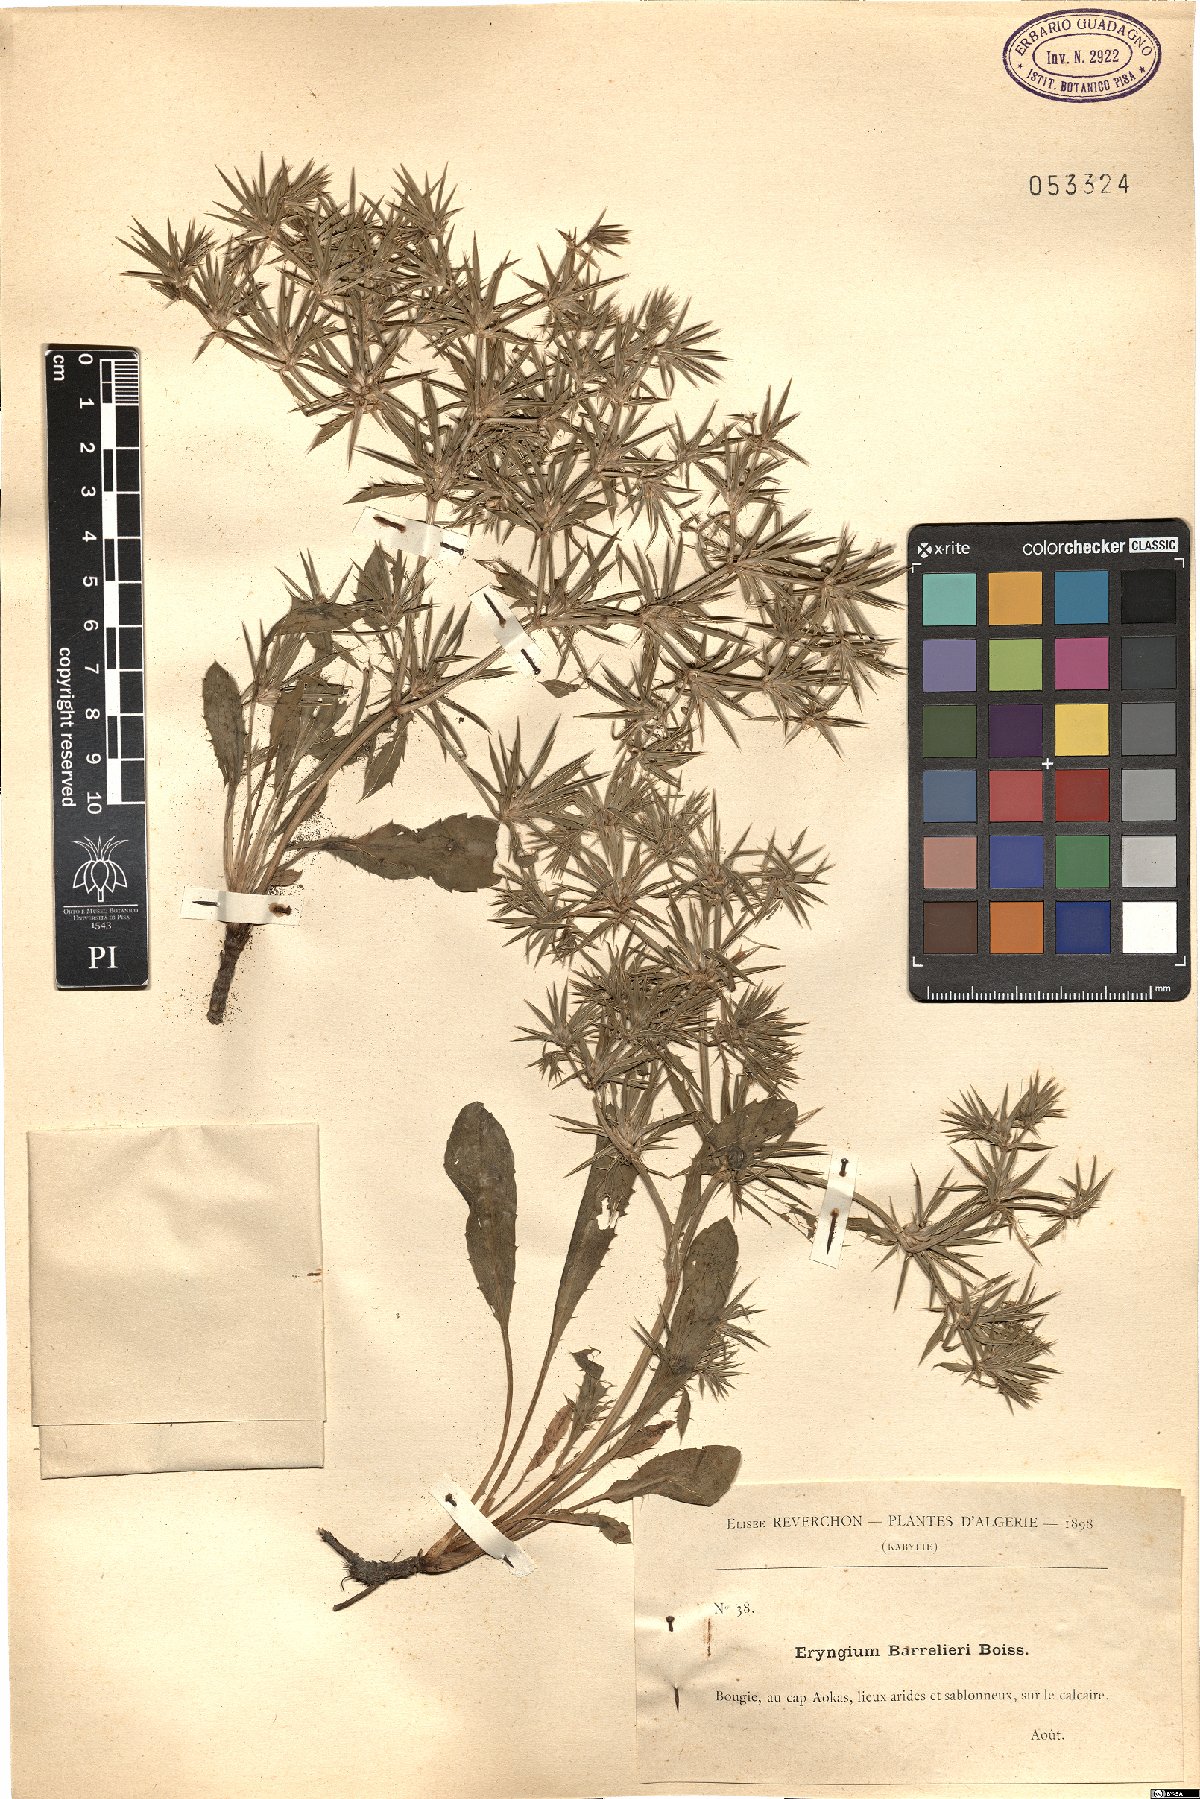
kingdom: Plantae
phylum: Tracheophyta
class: Magnoliopsida
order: Apiales
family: Apiaceae
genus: Eryngium
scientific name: Eryngium pusillum
